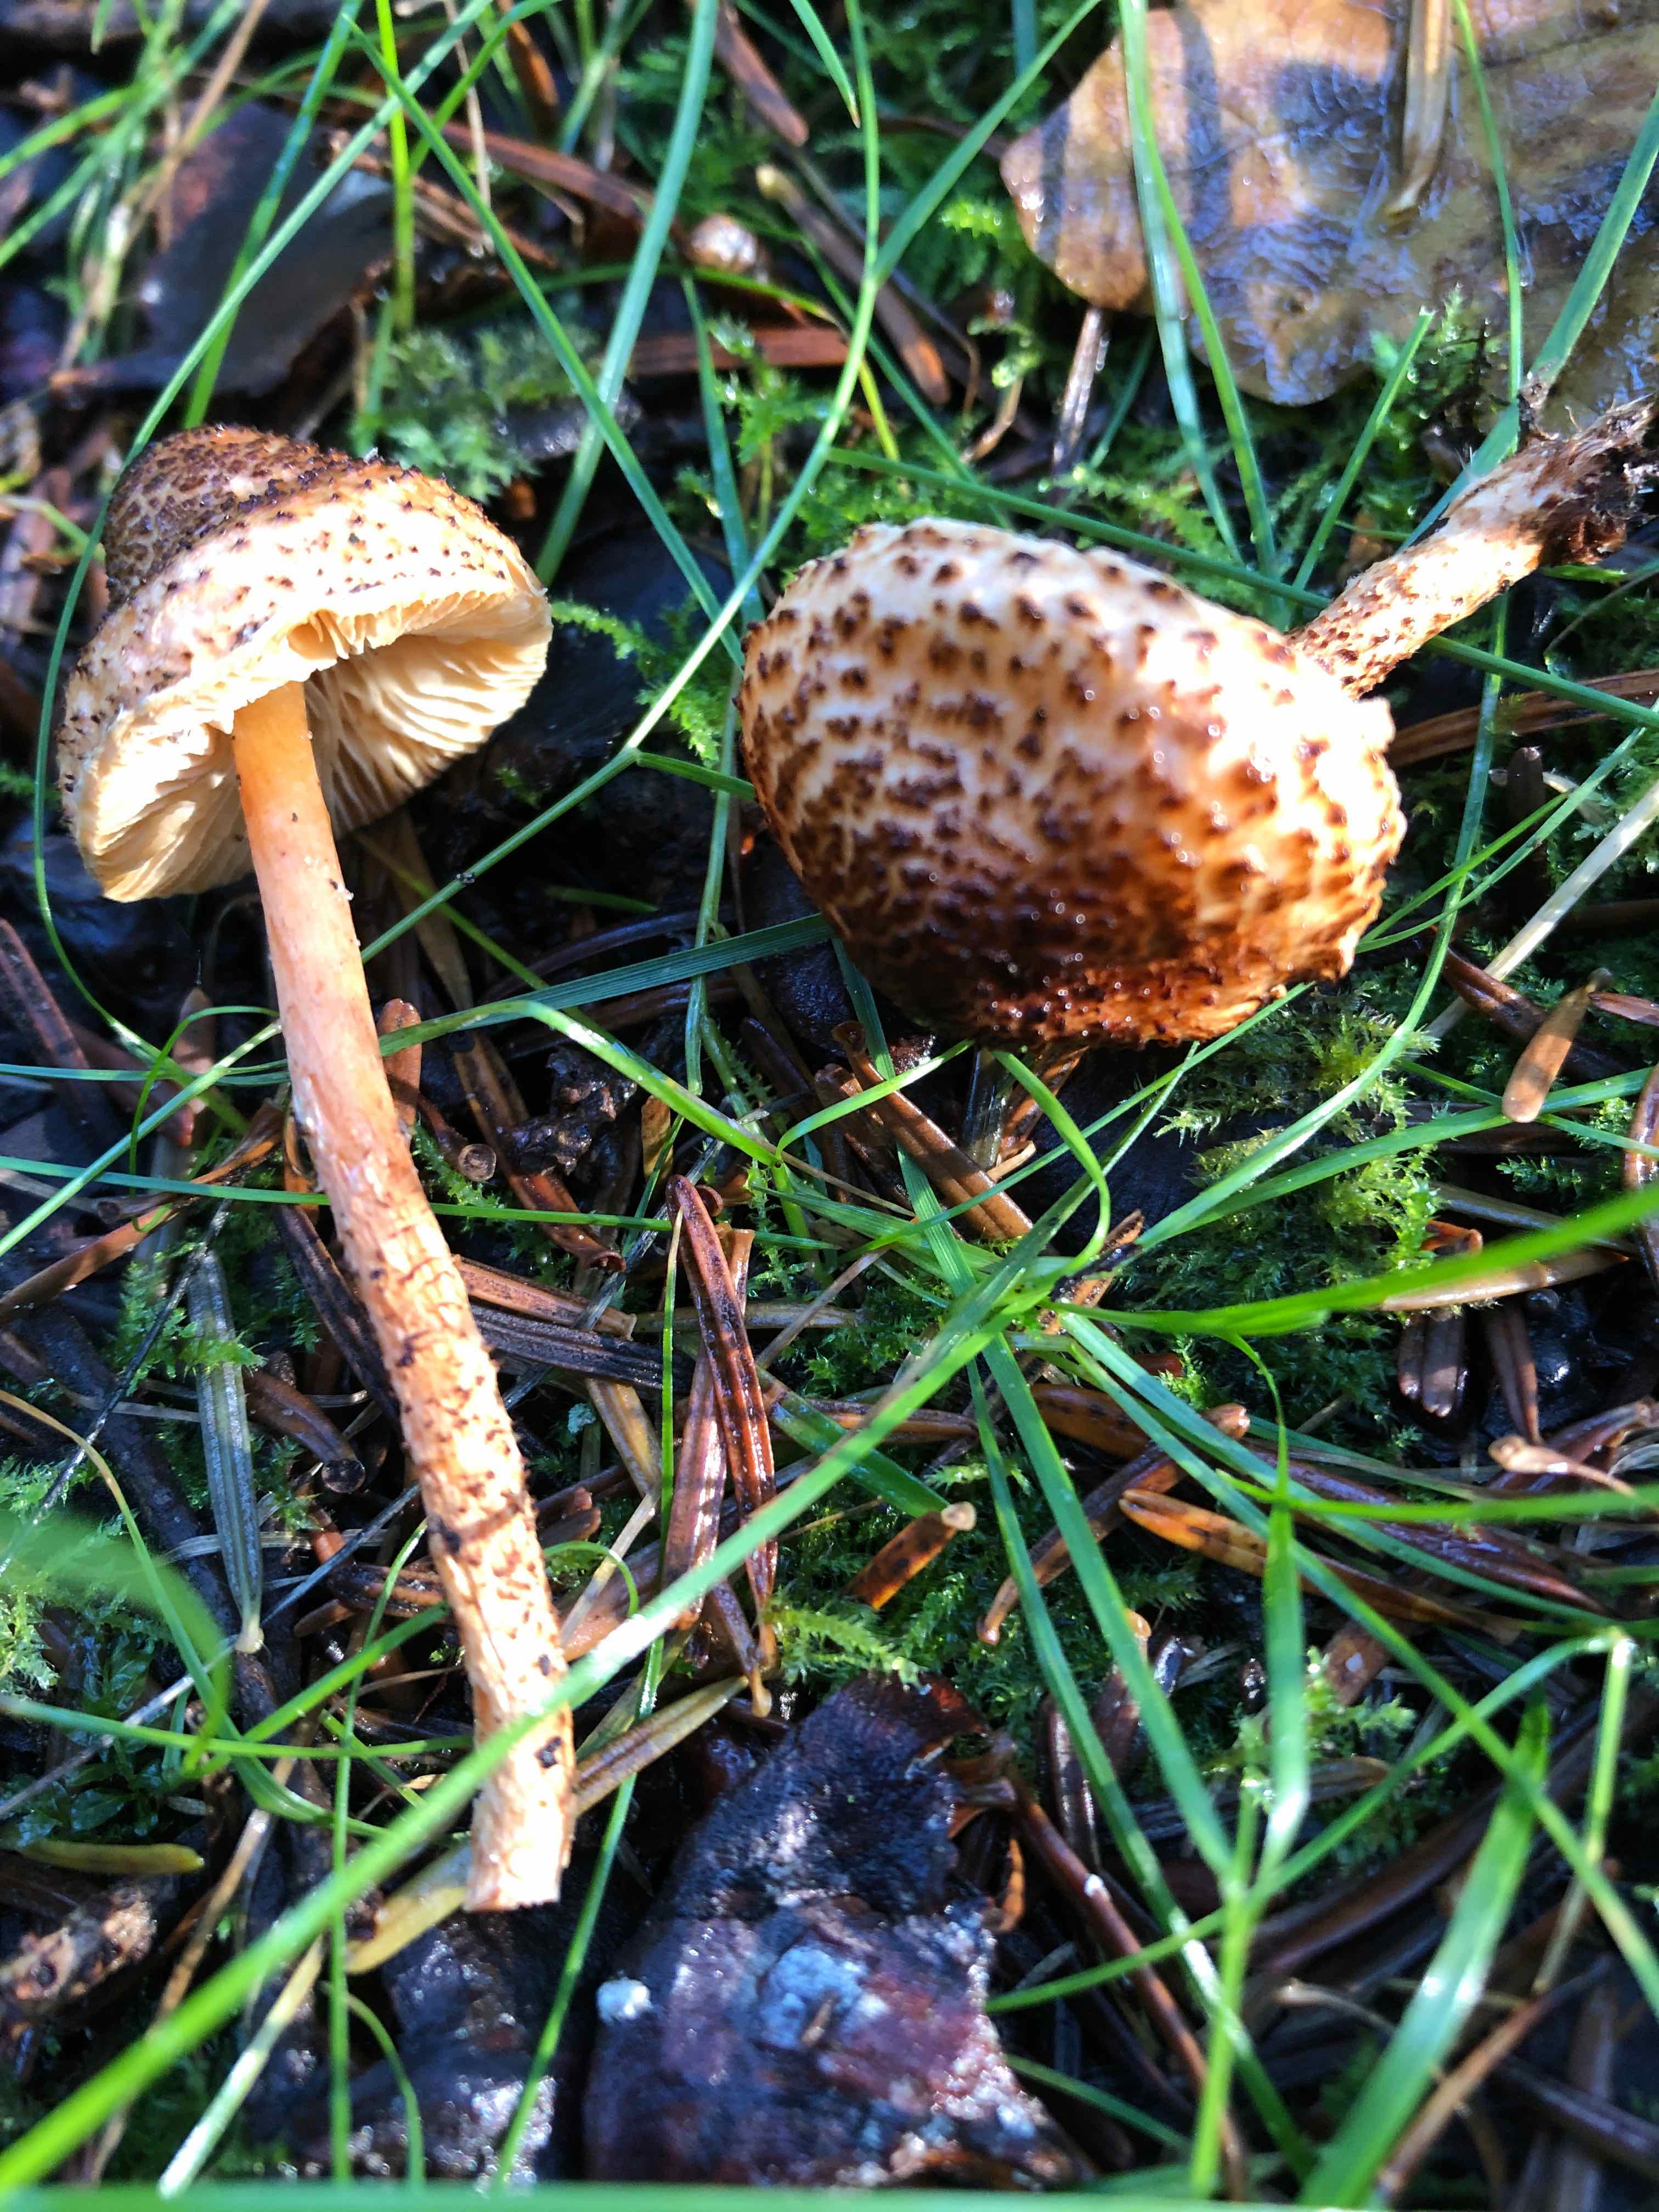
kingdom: Fungi
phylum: Basidiomycota
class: Agaricomycetes
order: Agaricales
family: Agaricaceae
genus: Lepiota
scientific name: Lepiota
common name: parasolhat
